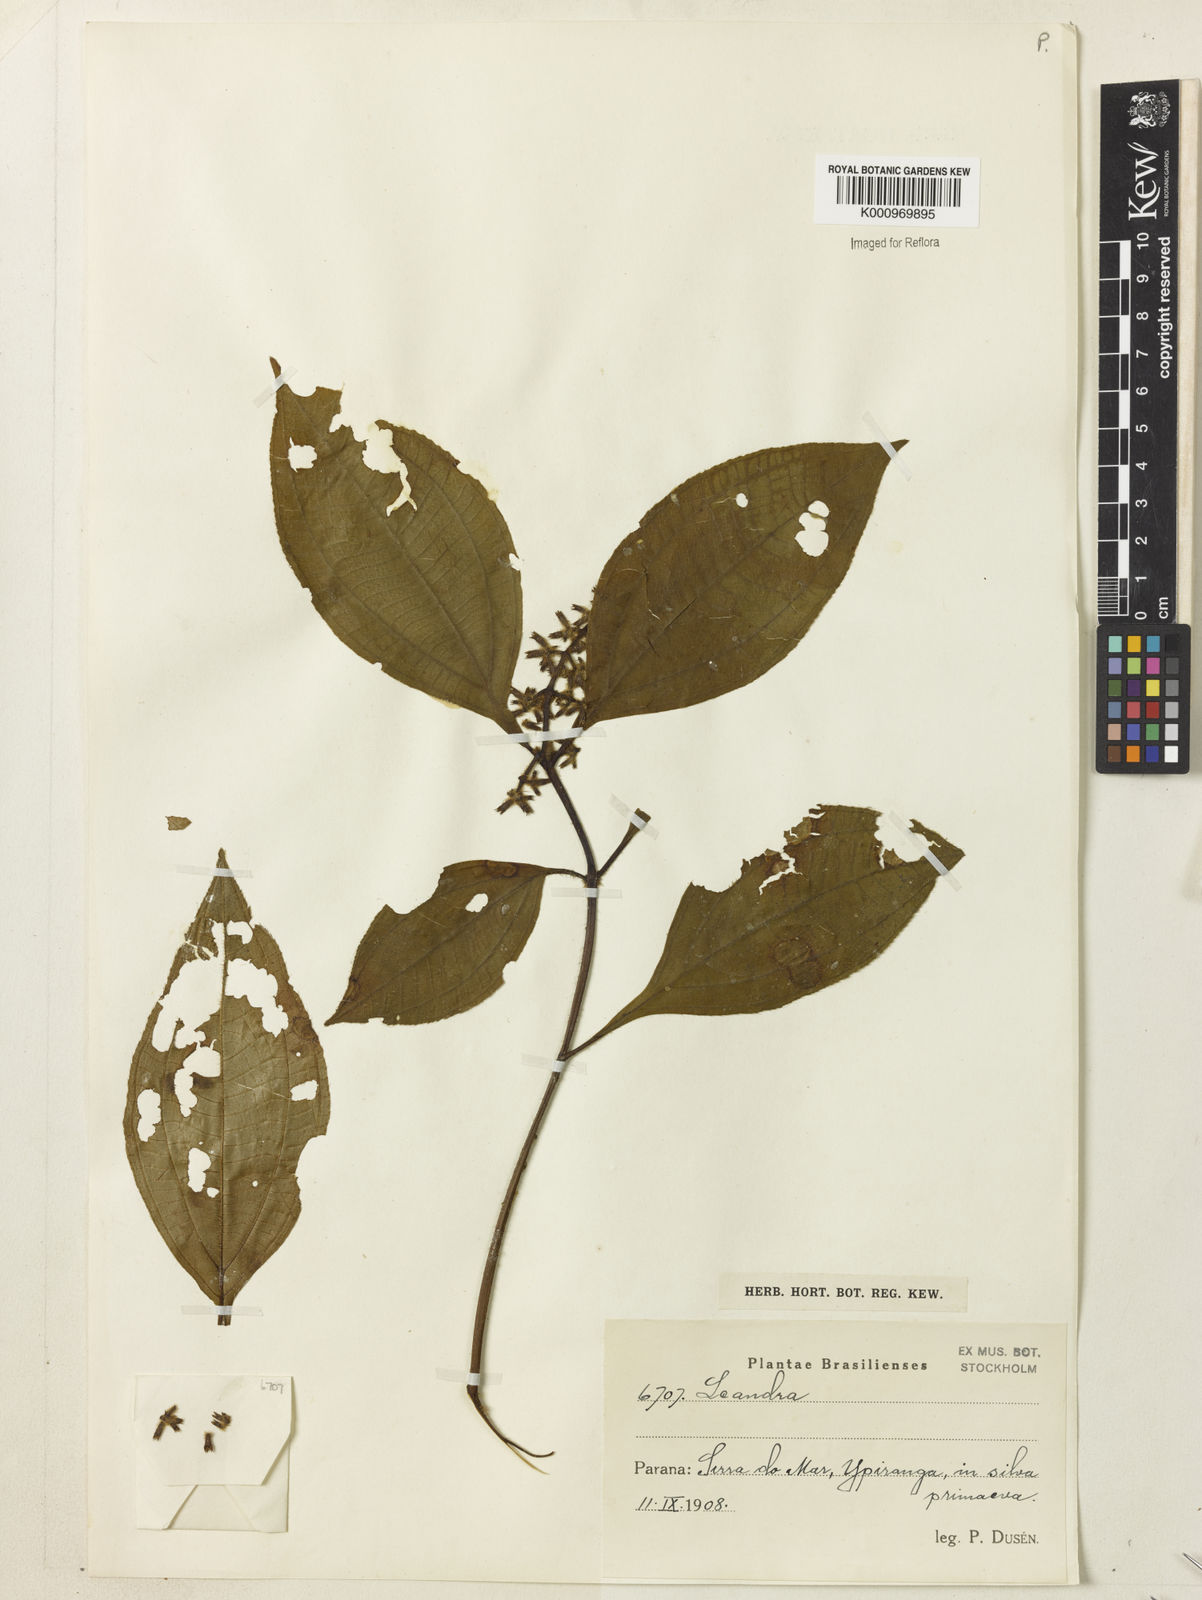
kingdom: Plantae
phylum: Tracheophyta
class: Magnoliopsida
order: Myrtales
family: Melastomataceae
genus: Miconia
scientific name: Miconia
